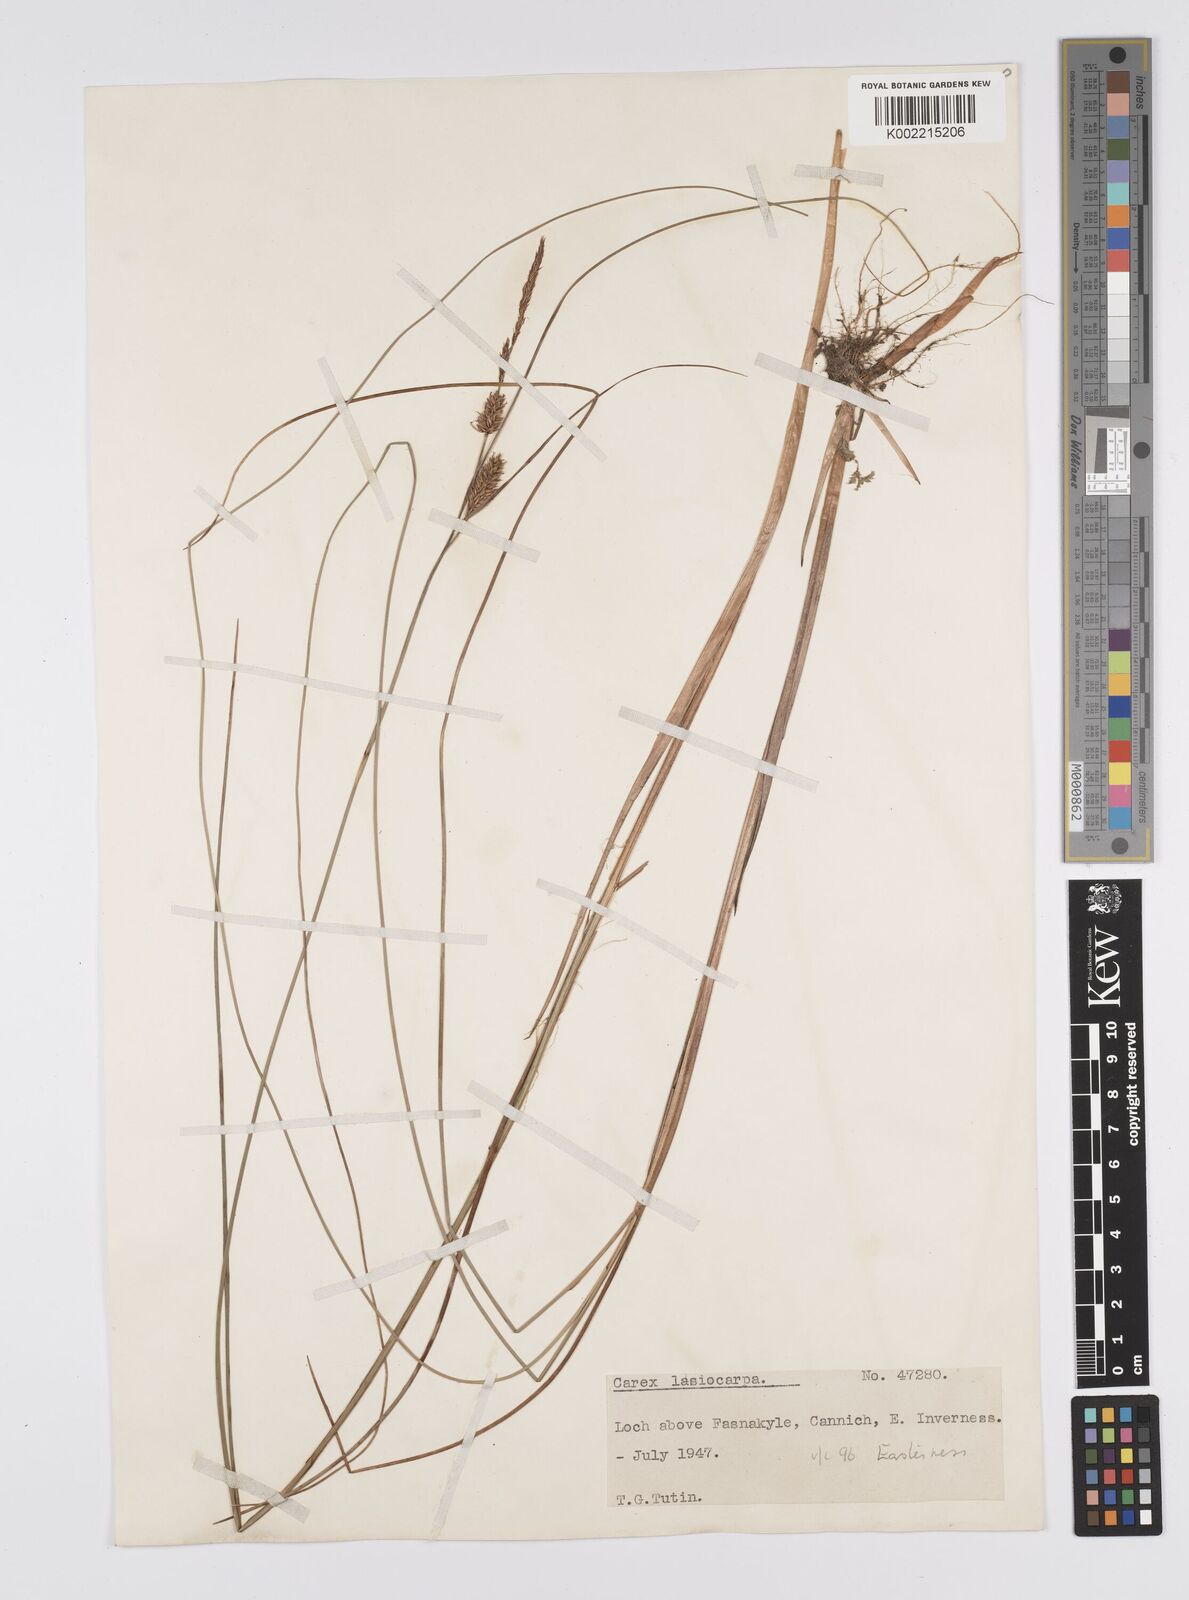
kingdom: Plantae
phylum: Tracheophyta
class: Liliopsida
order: Poales
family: Cyperaceae
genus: Carex
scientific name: Carex lasiocarpa
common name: Slender sedge
